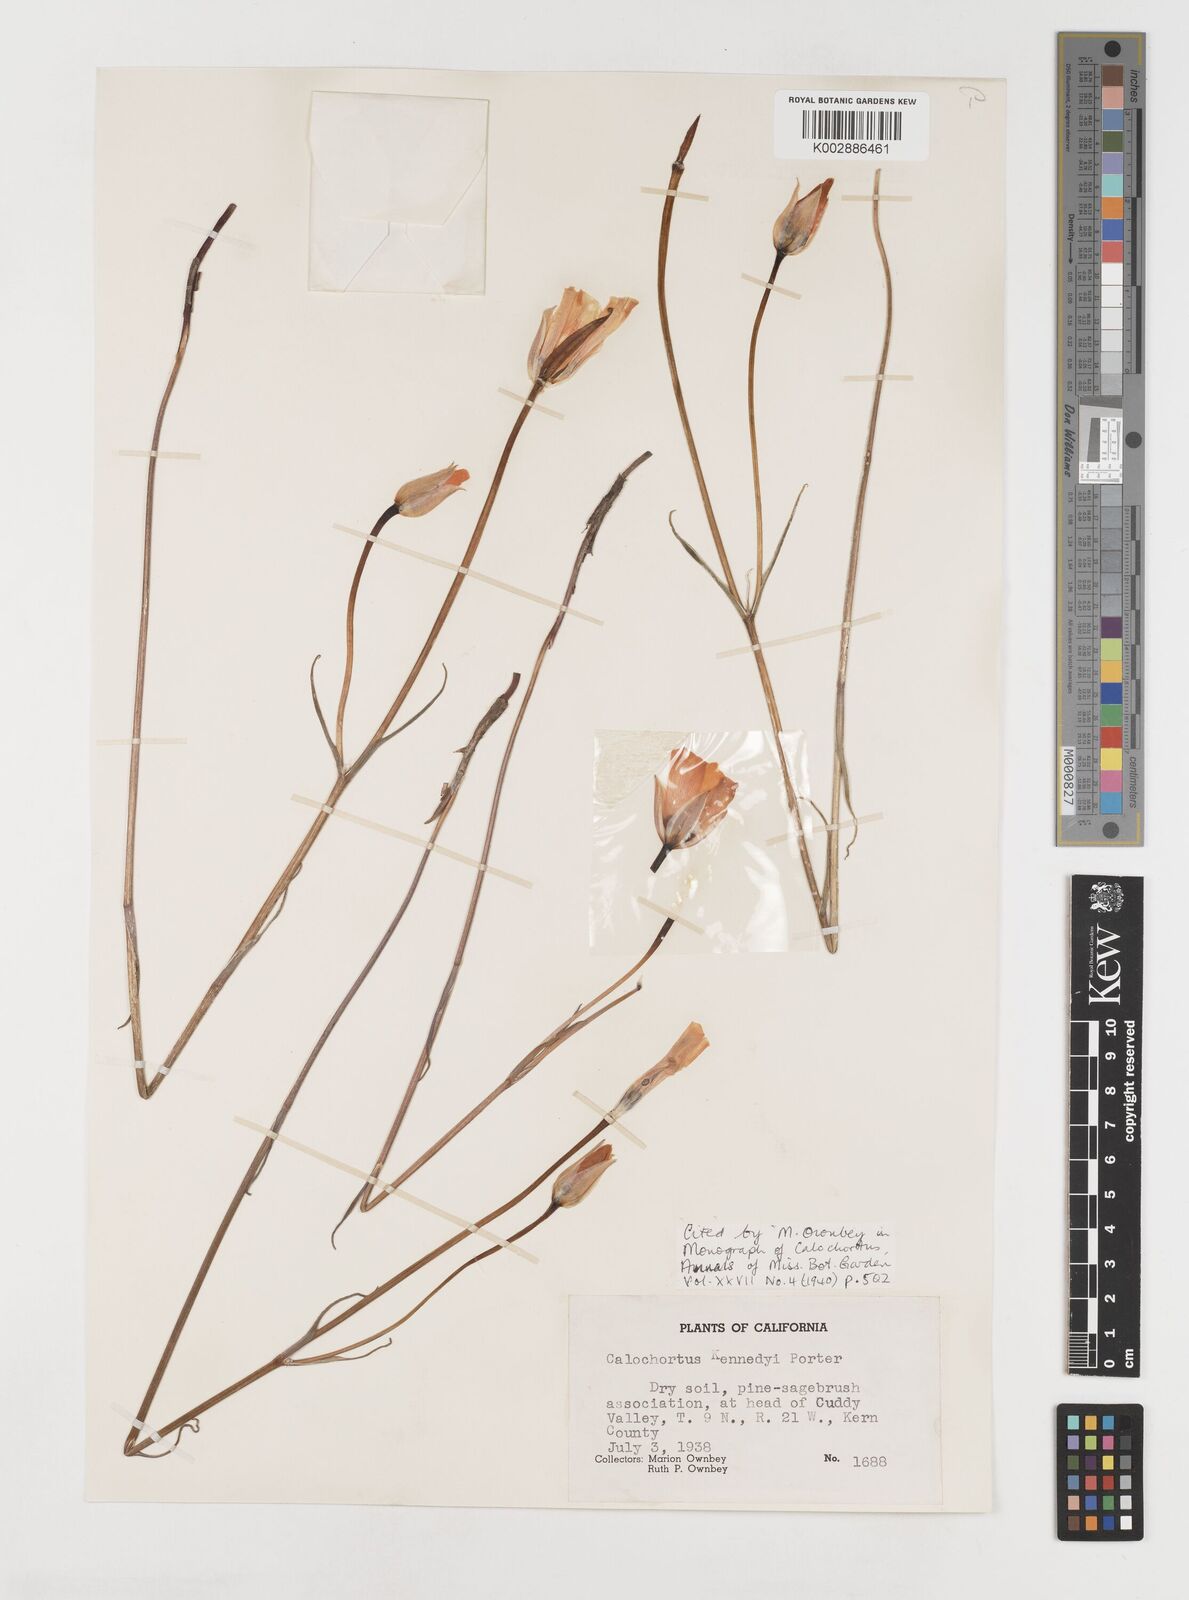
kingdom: Plantae
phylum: Tracheophyta
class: Liliopsida
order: Liliales
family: Liliaceae
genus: Calochortus
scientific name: Calochortus kennedyi
